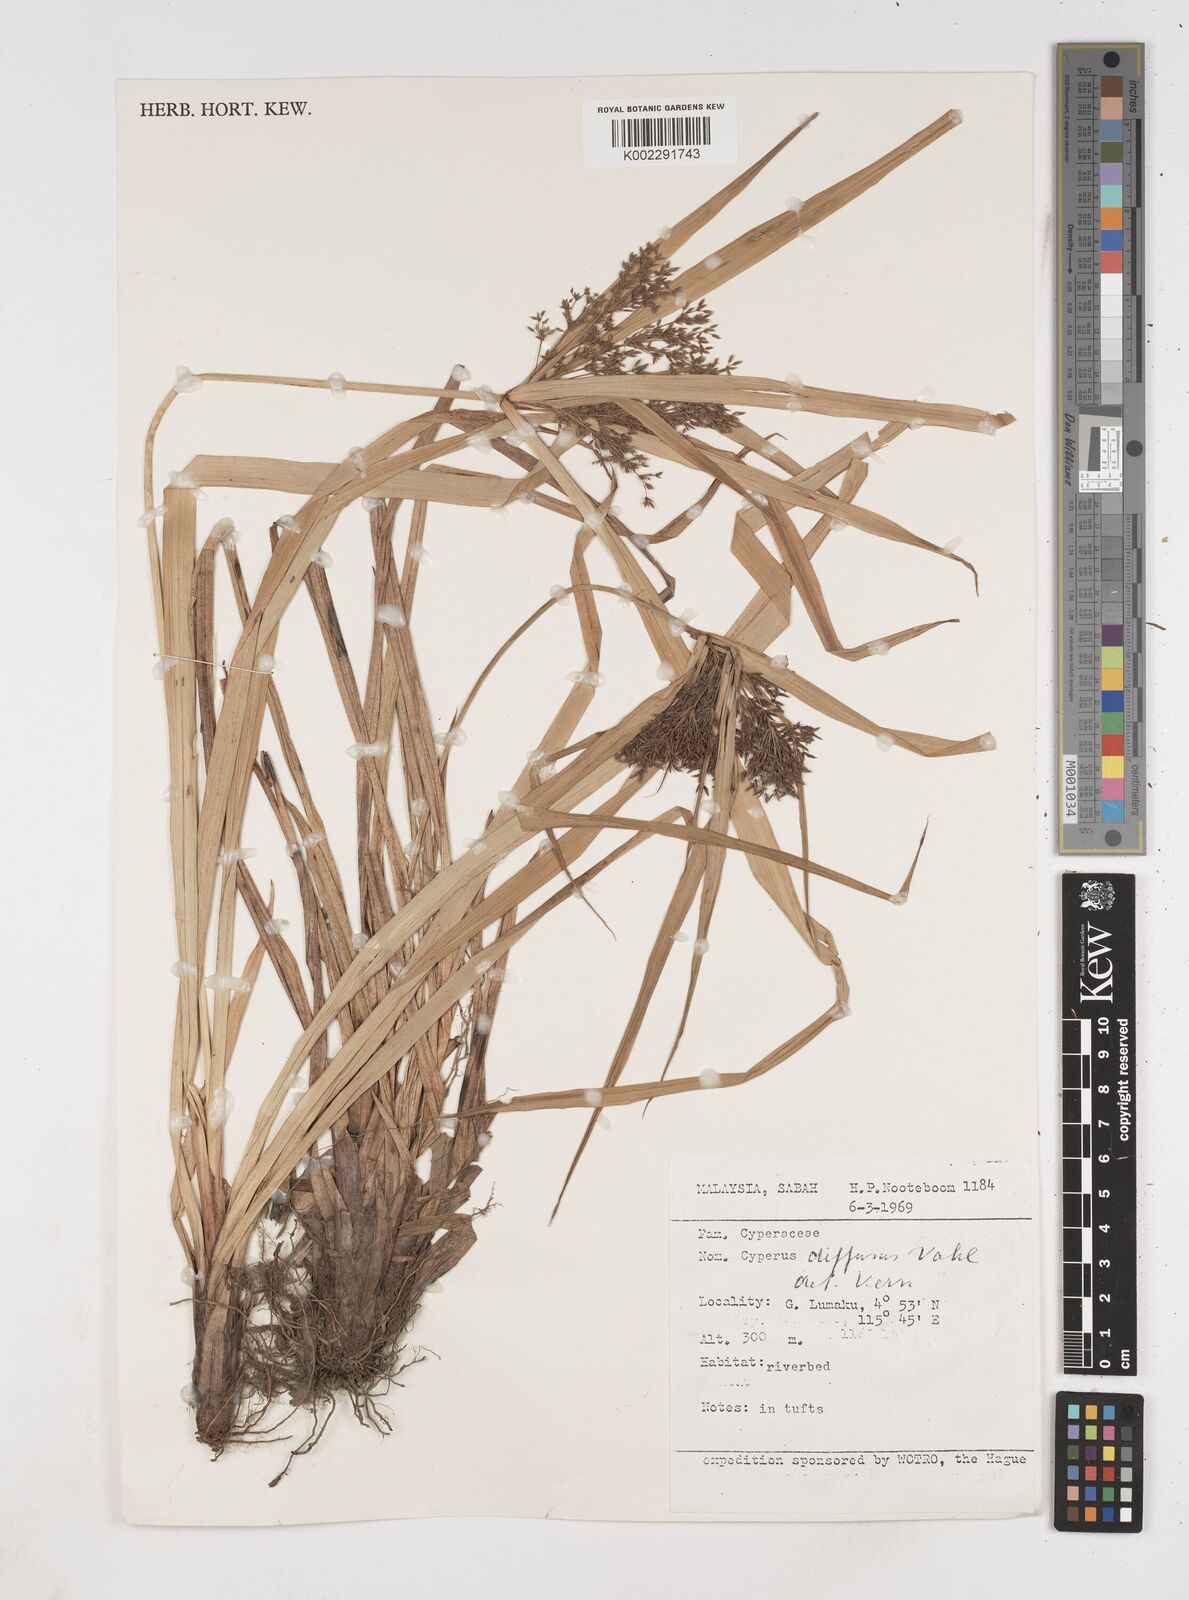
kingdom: Plantae
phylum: Tracheophyta
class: Liliopsida
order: Poales
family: Cyperaceae
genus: Cyperus
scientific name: Cyperus diffusus
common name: Dwarf umbrella grass
